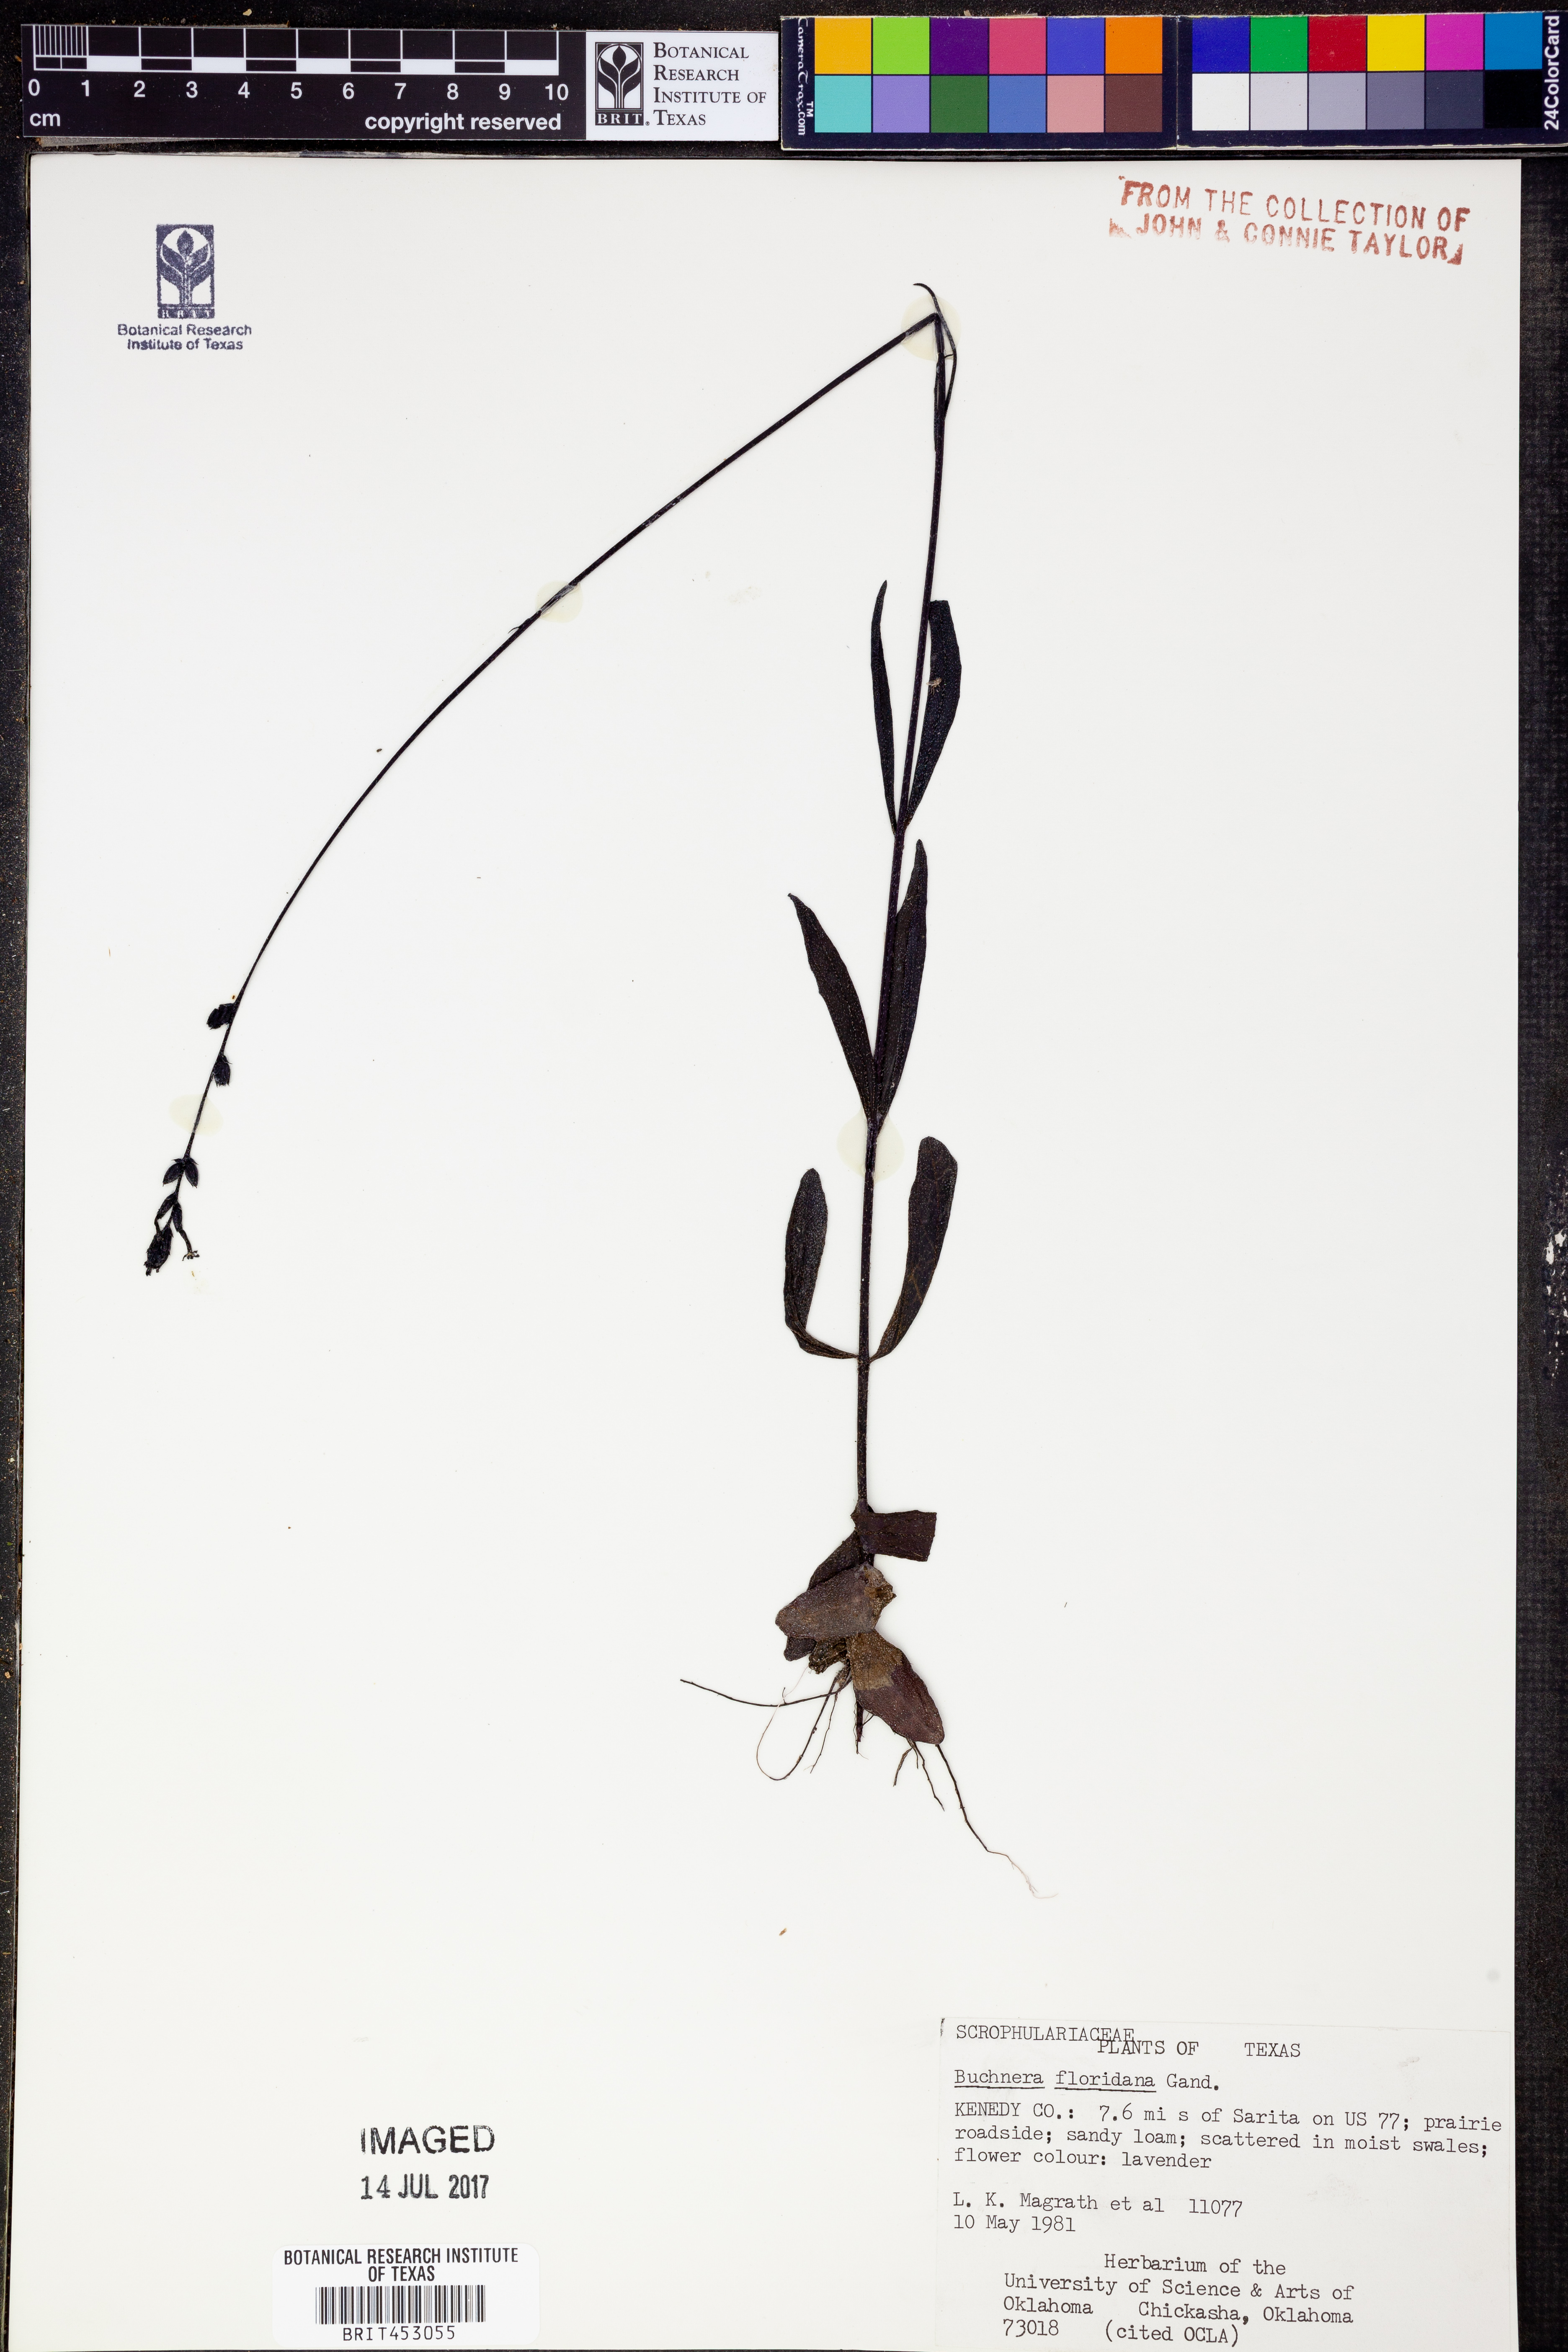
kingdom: Plantae
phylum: Tracheophyta
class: Magnoliopsida
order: Lamiales
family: Orobanchaceae
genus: Buchnera
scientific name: Buchnera floridana
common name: Florida bluehearts
